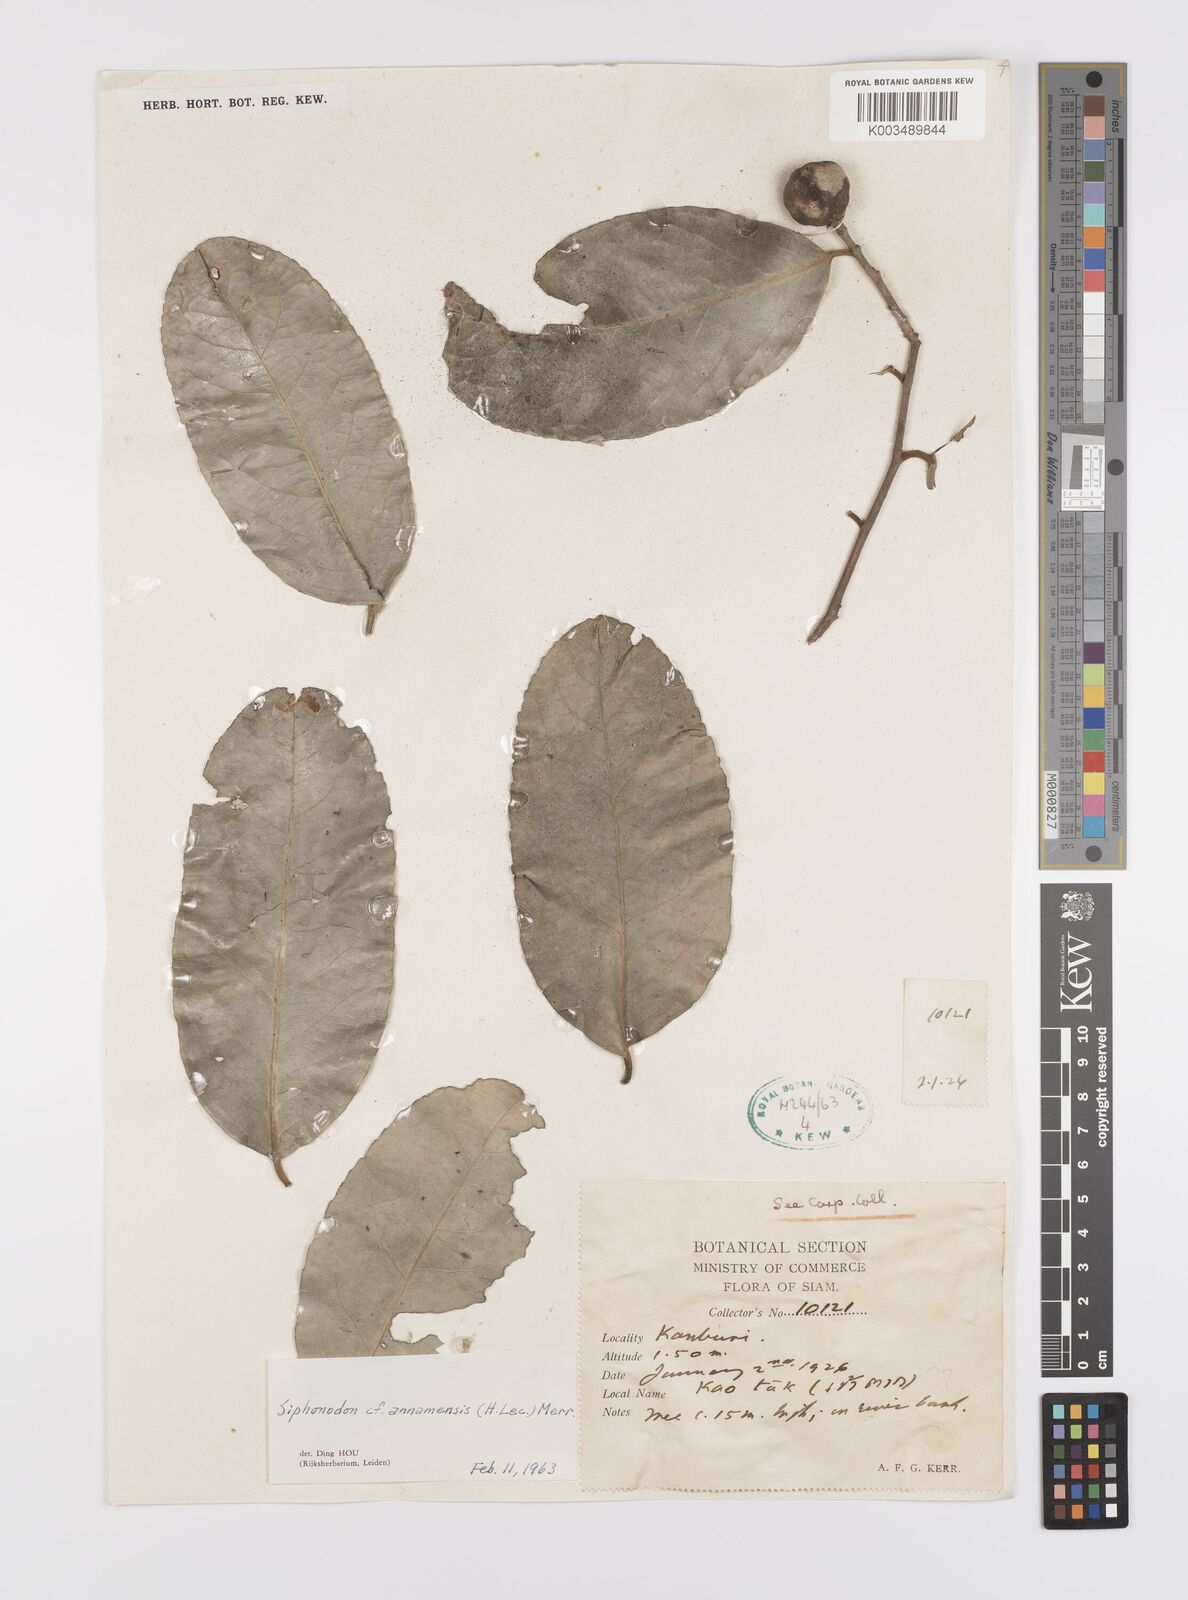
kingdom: Plantae
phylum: Tracheophyta
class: Magnoliopsida
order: Celastrales
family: Celastraceae
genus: Siphonodon
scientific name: Siphonodon celastrineus
